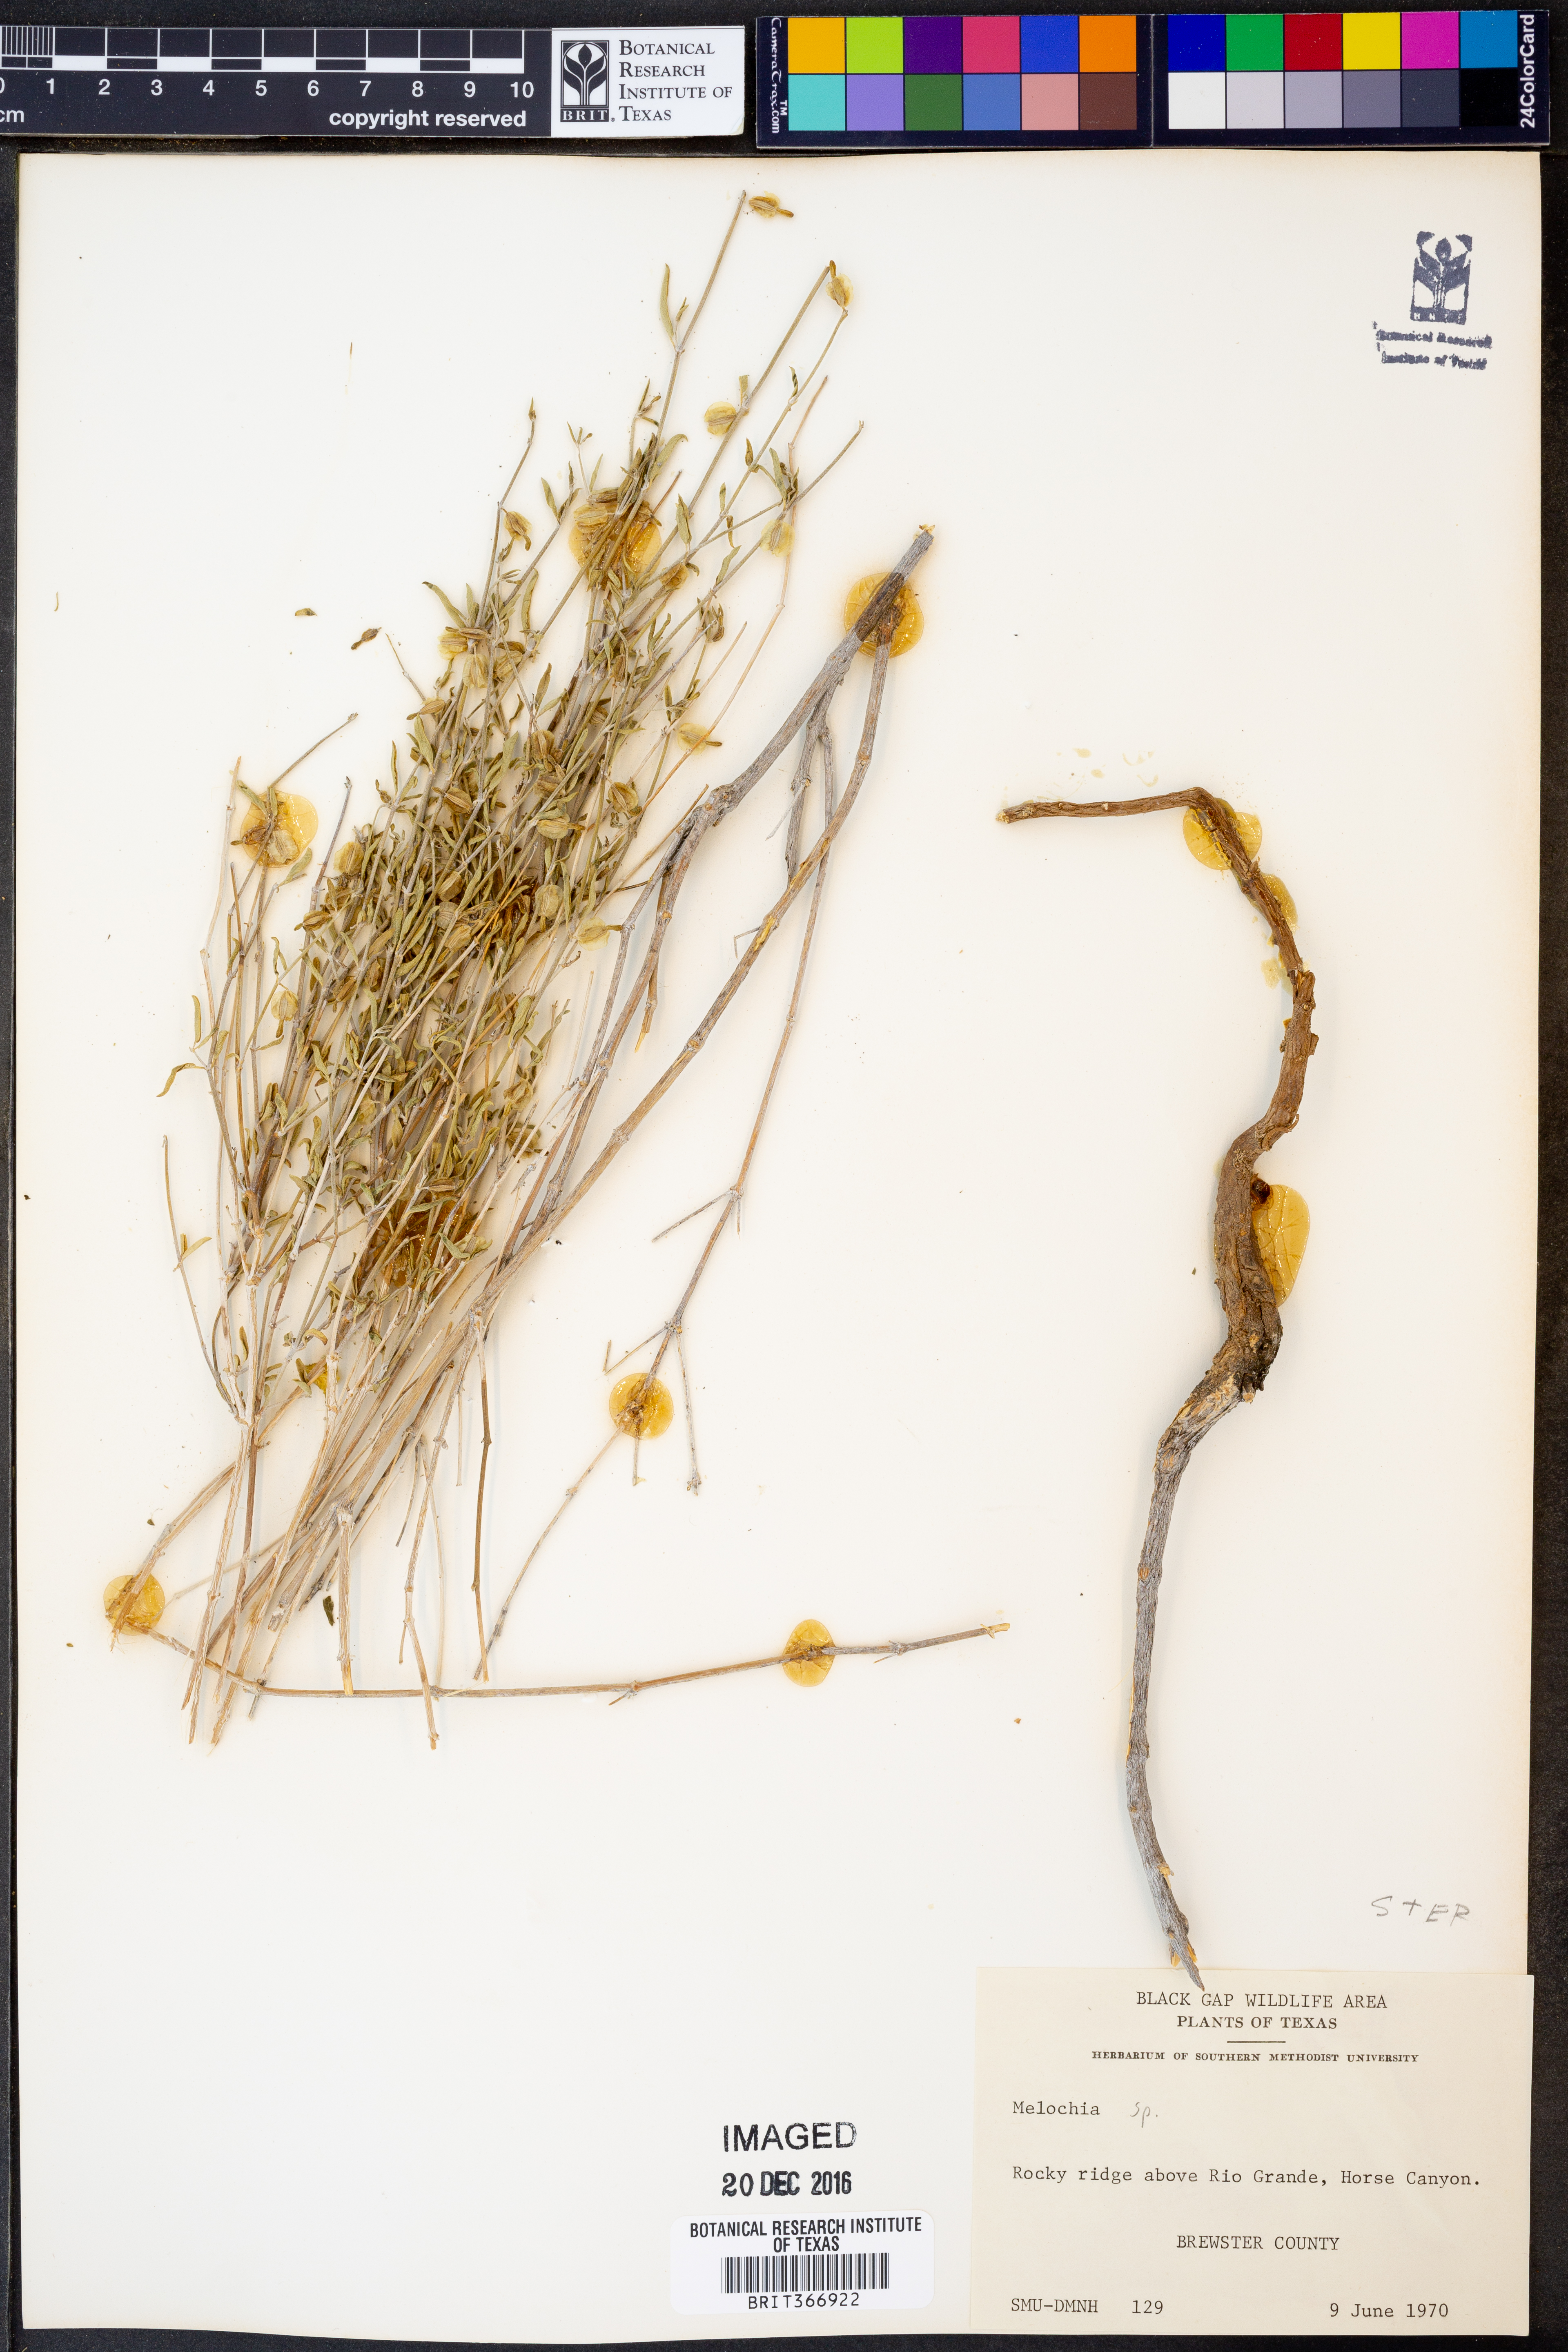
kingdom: Plantae
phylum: Tracheophyta
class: Magnoliopsida
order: Malvales
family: Malvaceae
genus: Melochia
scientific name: Melochia
